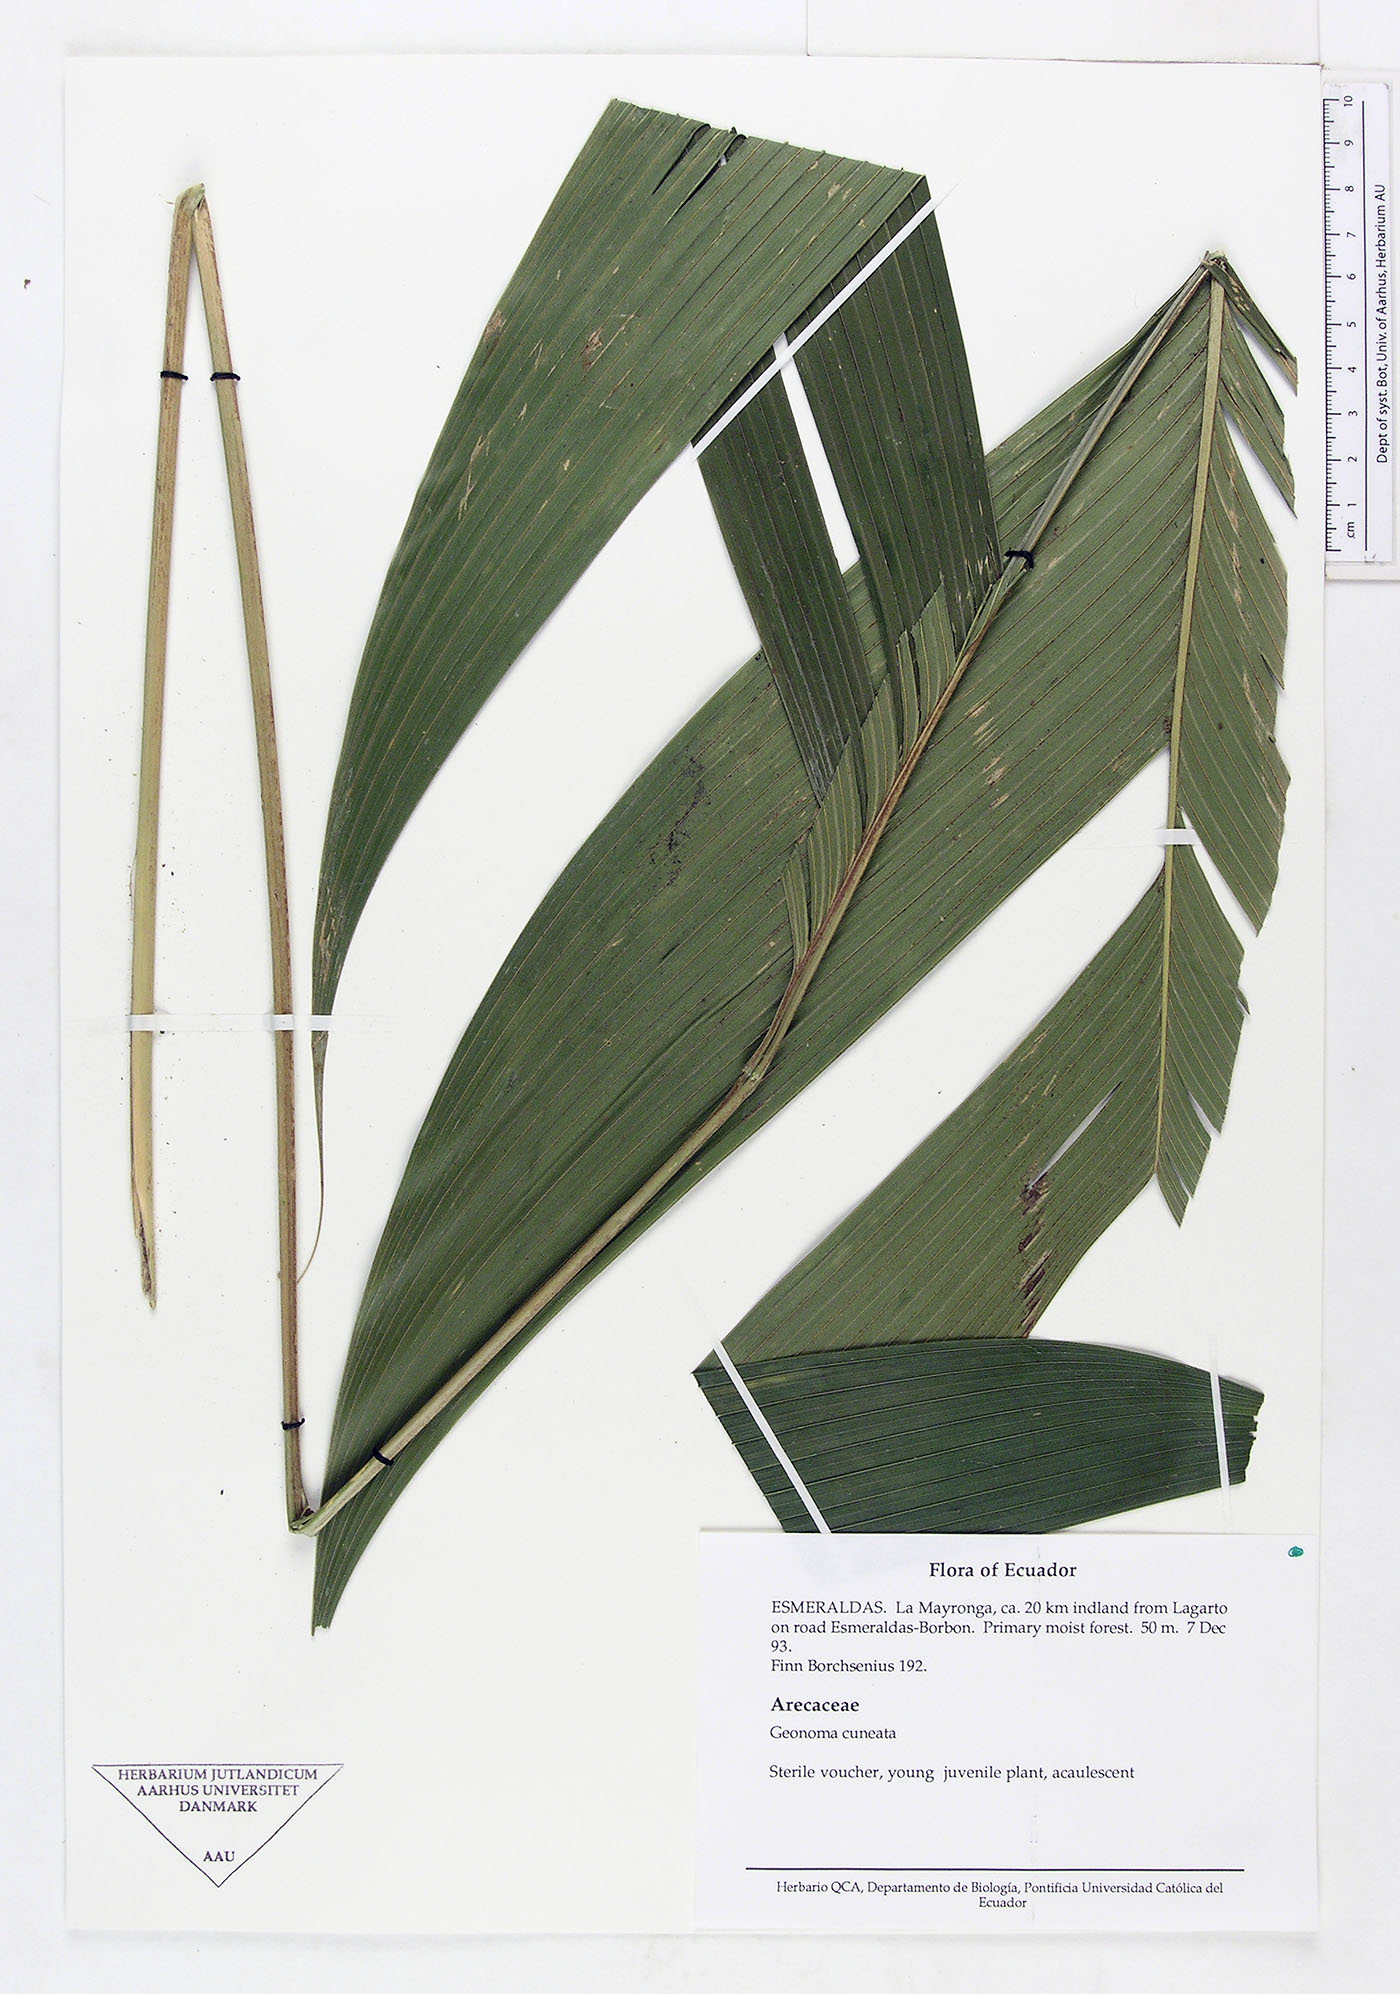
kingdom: Plantae
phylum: Tracheophyta
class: Liliopsida
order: Arecales
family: Arecaceae
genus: Geonoma
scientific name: Geonoma cuneata
